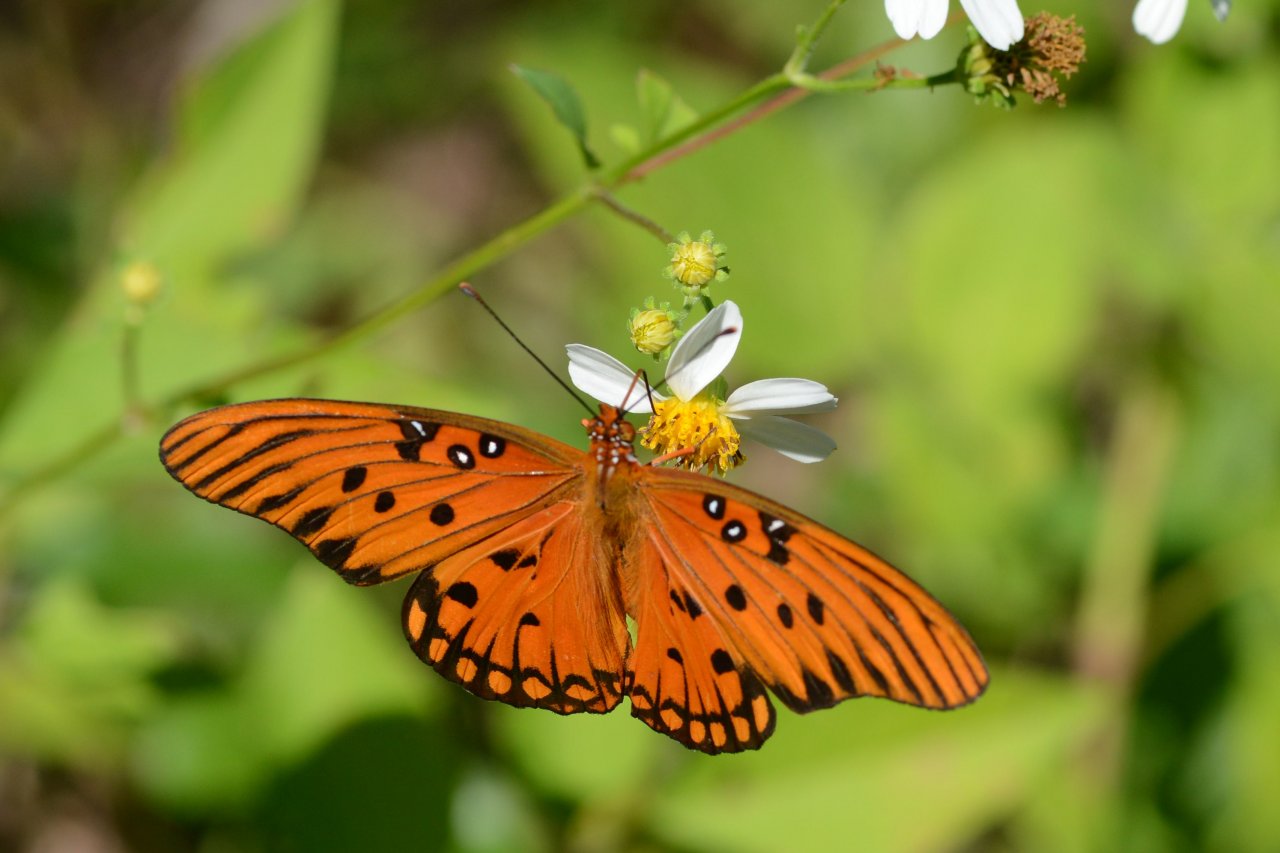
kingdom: Animalia
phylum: Arthropoda
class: Insecta
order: Lepidoptera
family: Nymphalidae
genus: Dione
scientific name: Dione vanillae
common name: Gulf Fritillary
